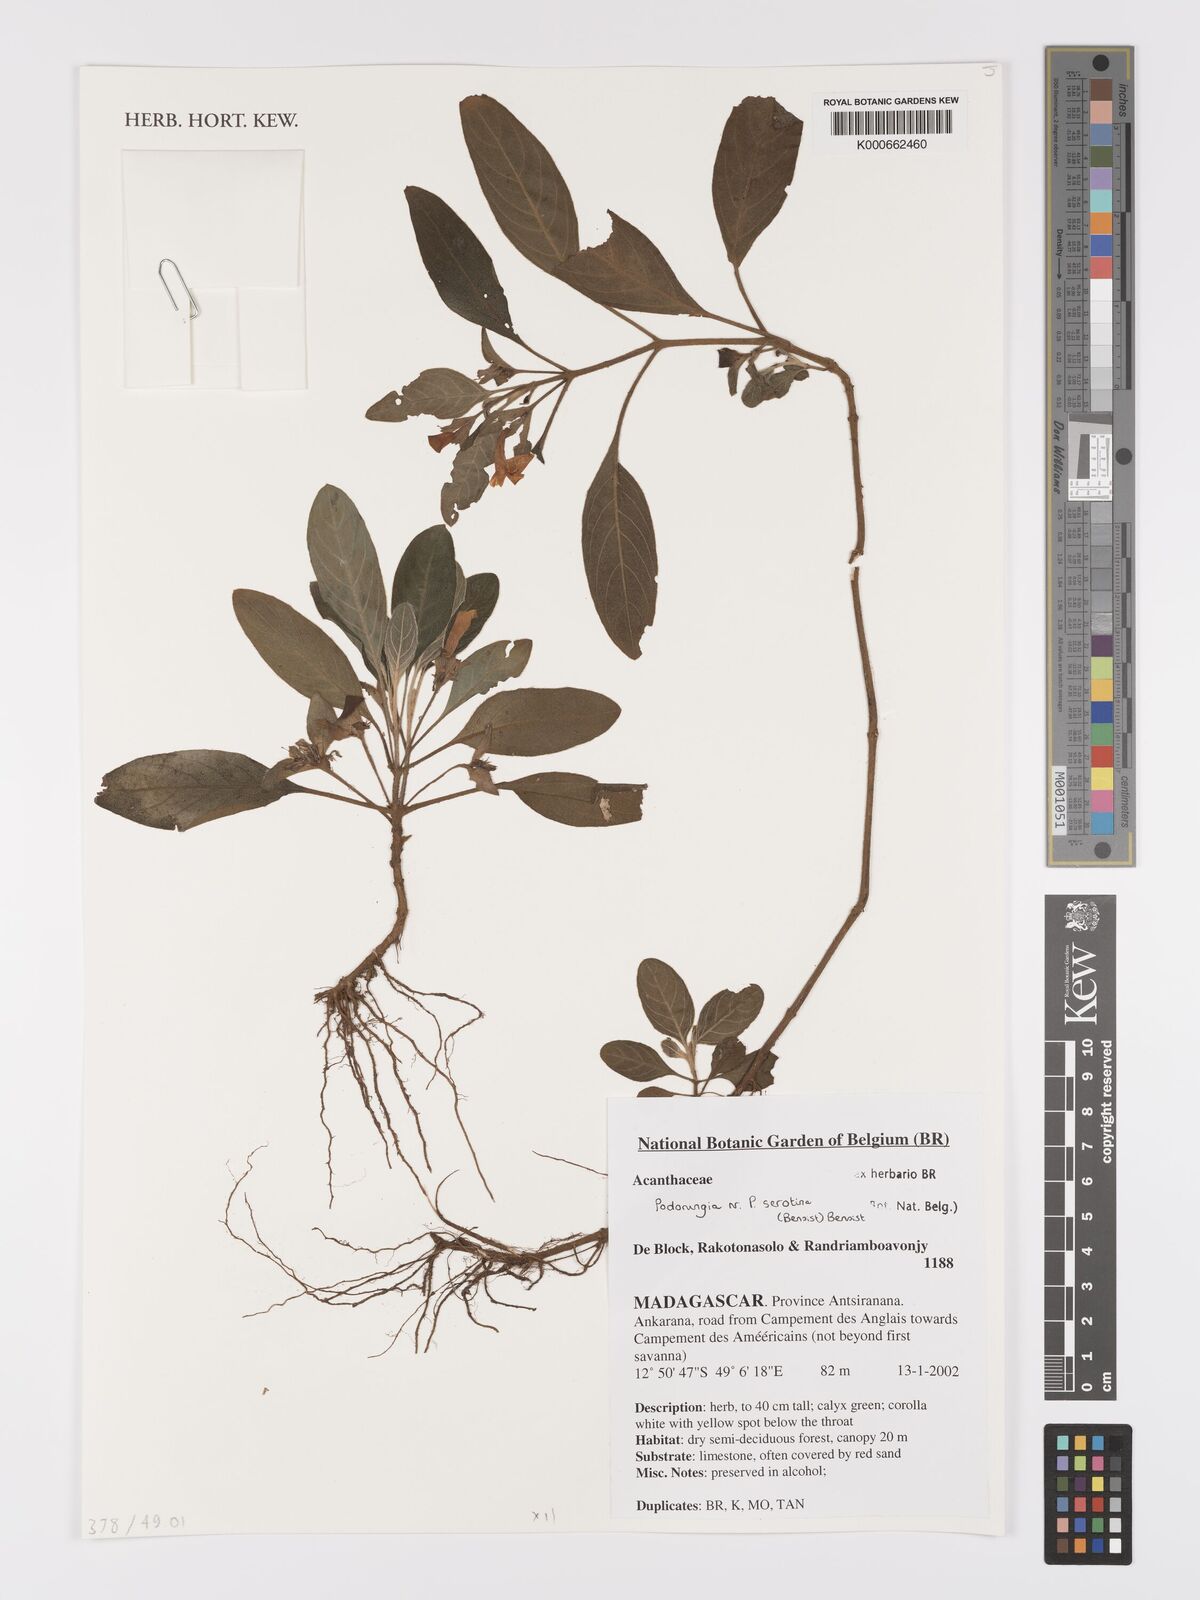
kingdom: Plantae
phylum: Tracheophyta
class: Magnoliopsida
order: Lamiales
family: Acanthaceae
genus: Podorungia
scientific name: Podorungia serotina
